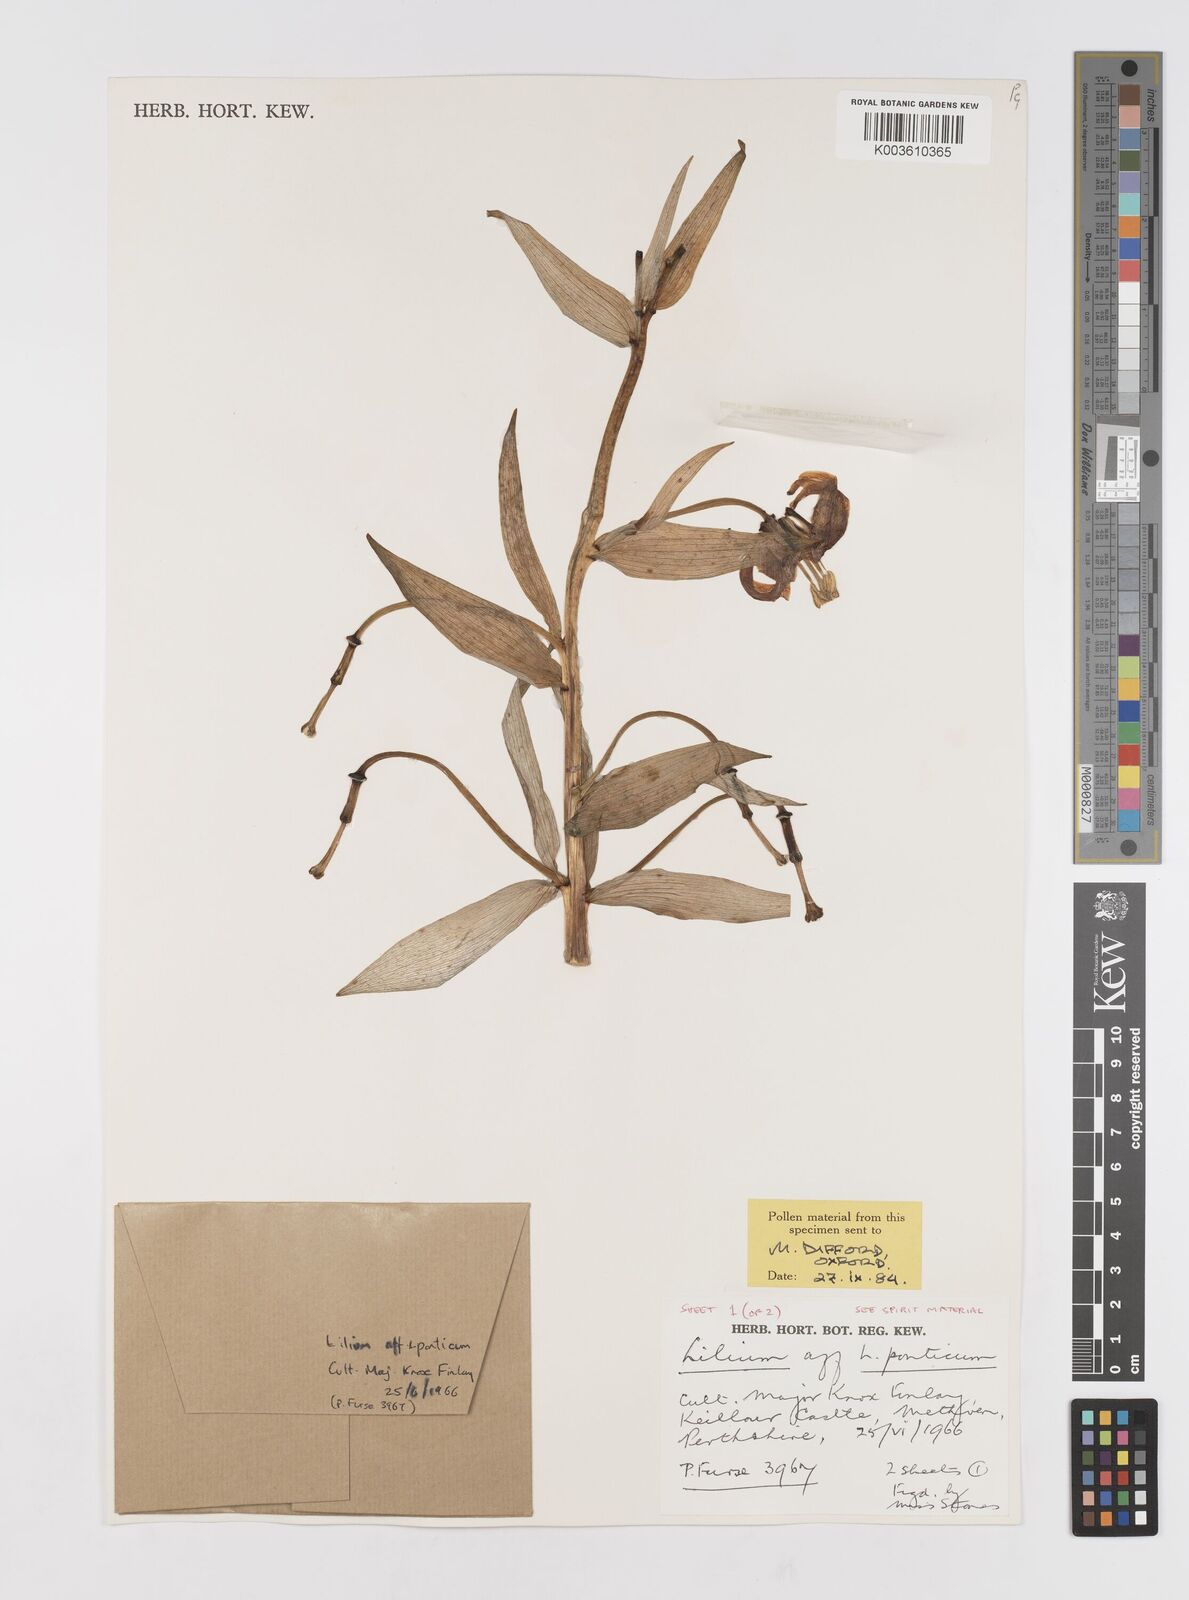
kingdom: Plantae
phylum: Tracheophyta
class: Liliopsida
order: Liliales
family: Liliaceae
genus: Lilium
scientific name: Lilium ponticum
